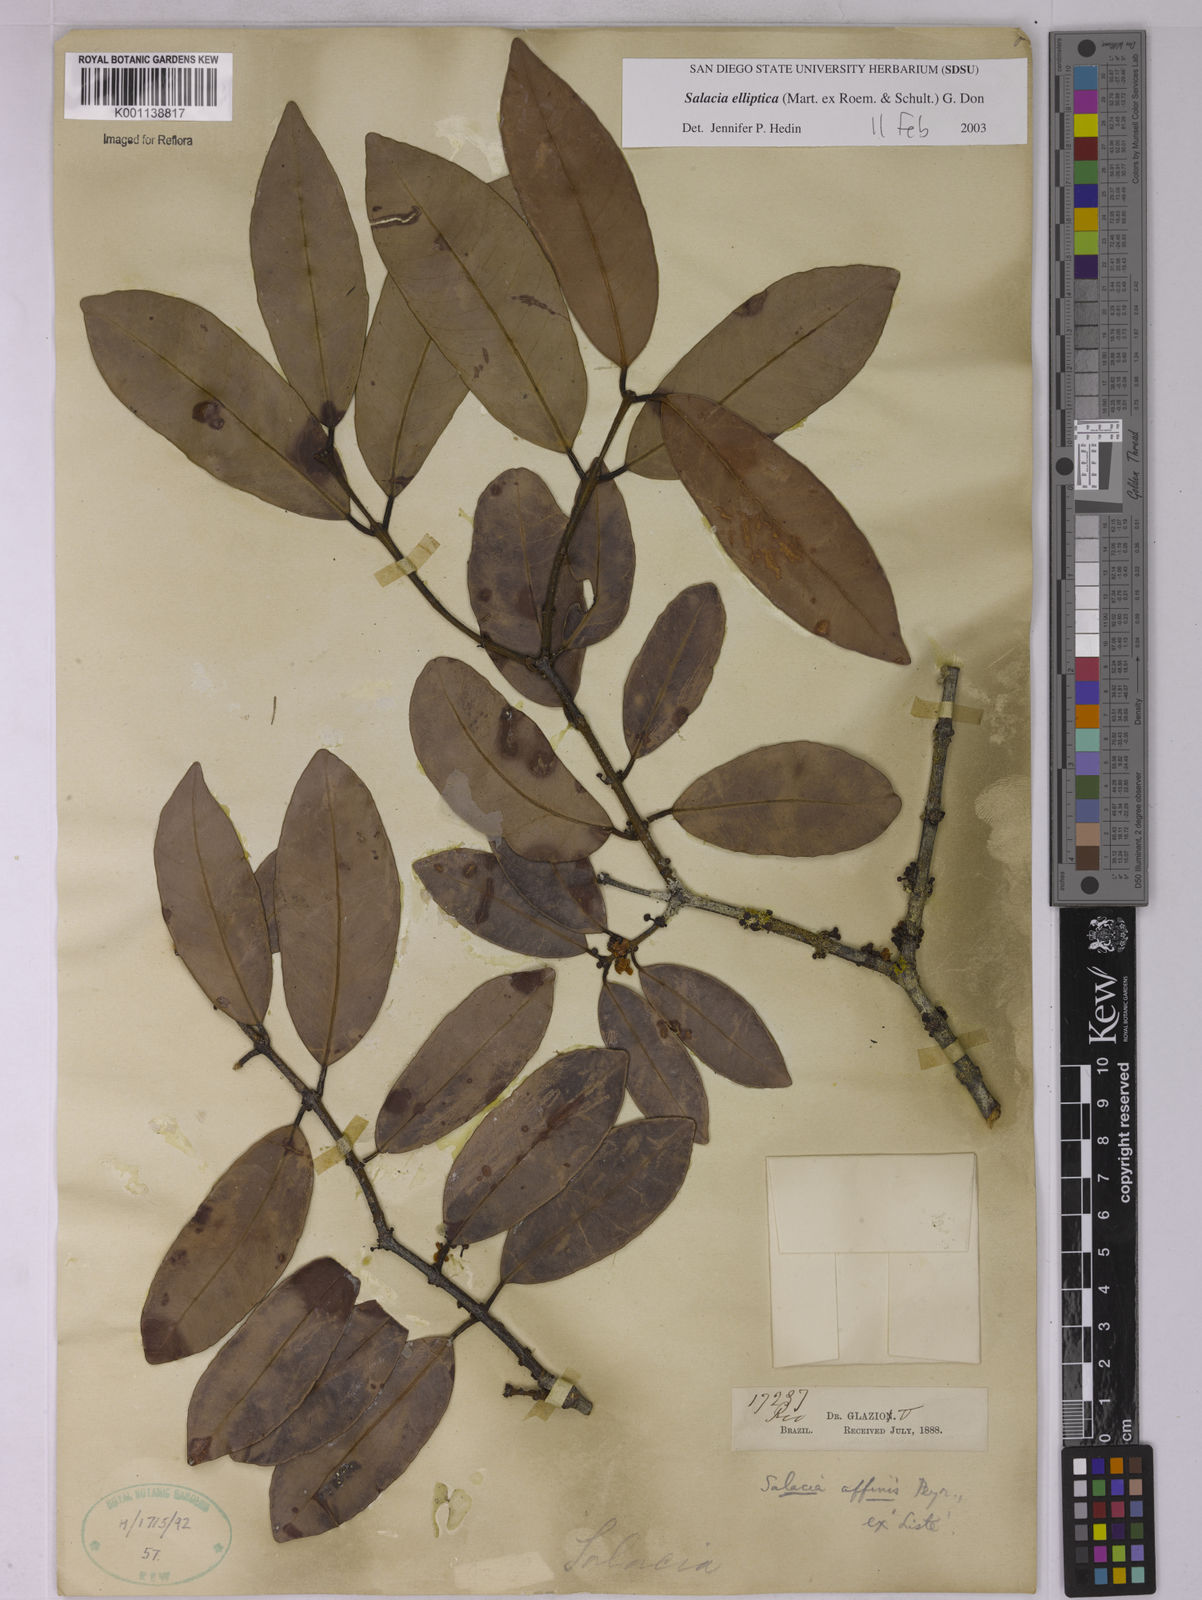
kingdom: Plantae
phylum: Tracheophyta
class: Magnoliopsida
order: Celastrales
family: Celastraceae
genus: Salacia
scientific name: Salacia elliptica
